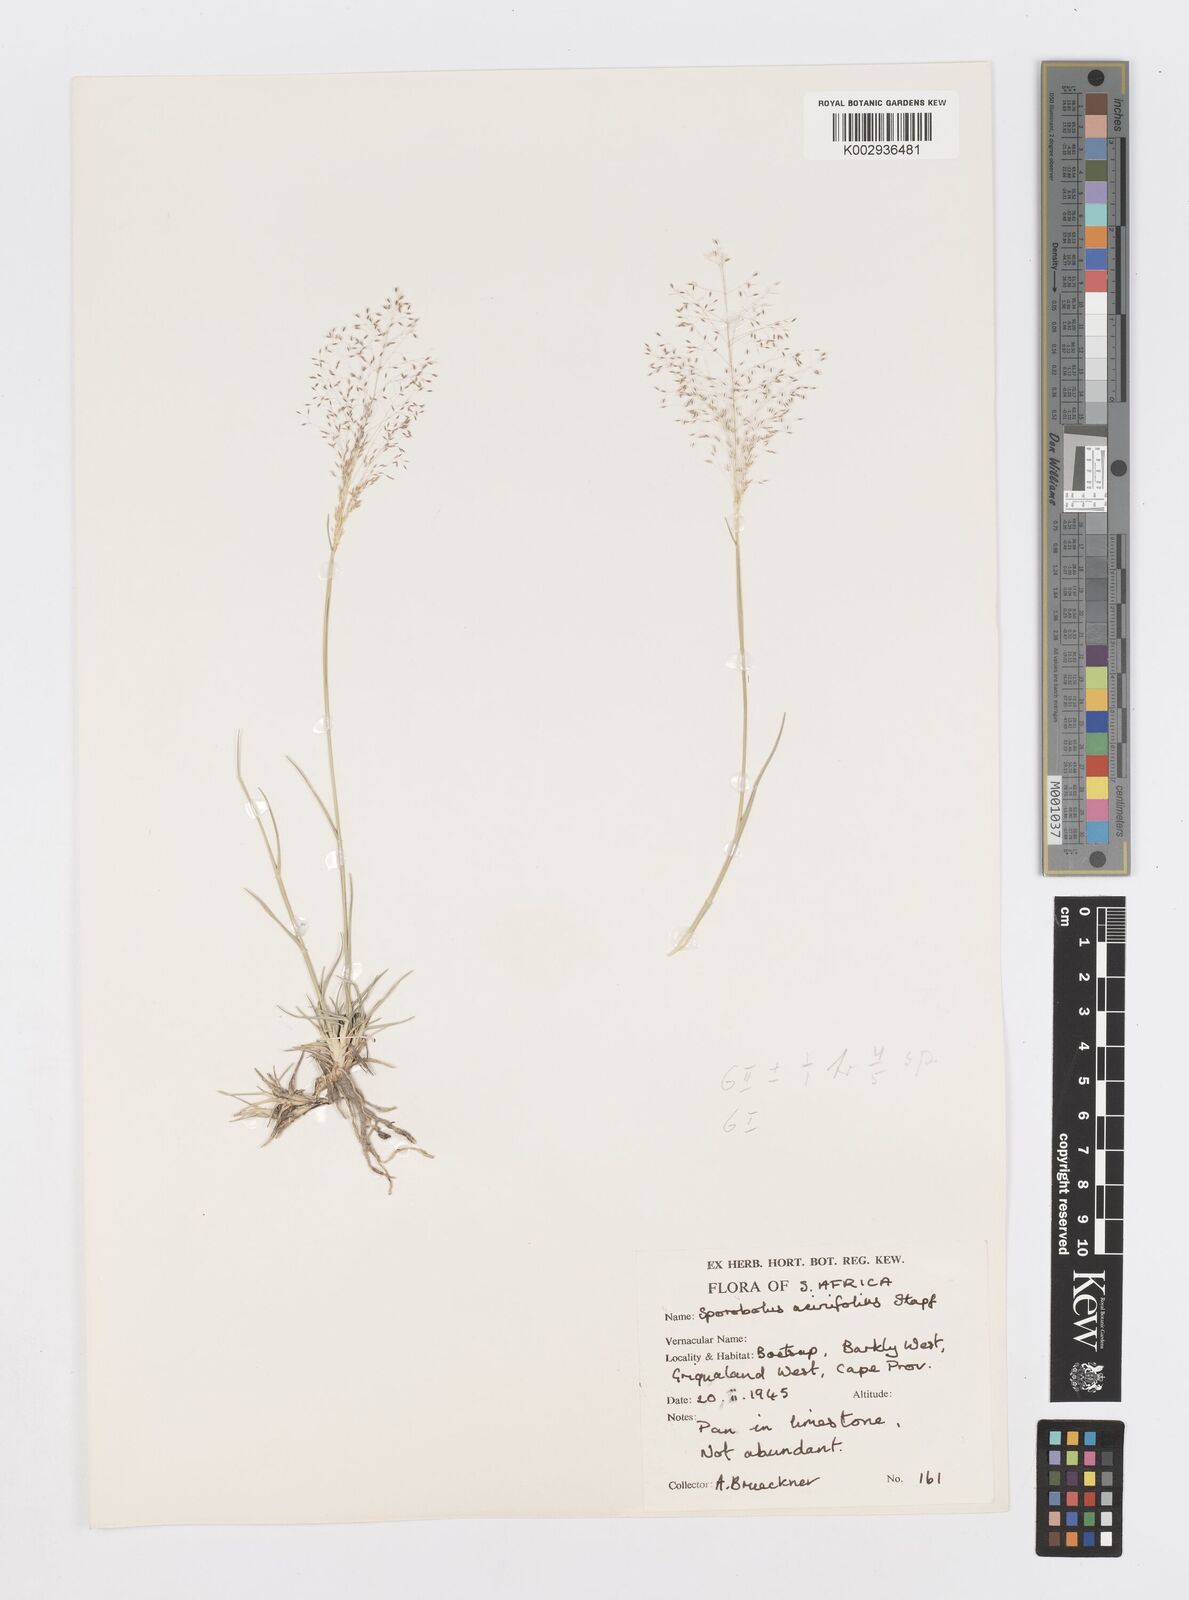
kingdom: Plantae
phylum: Tracheophyta
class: Liliopsida
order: Poales
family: Poaceae
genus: Sporobolus
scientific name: Sporobolus acinifolius
